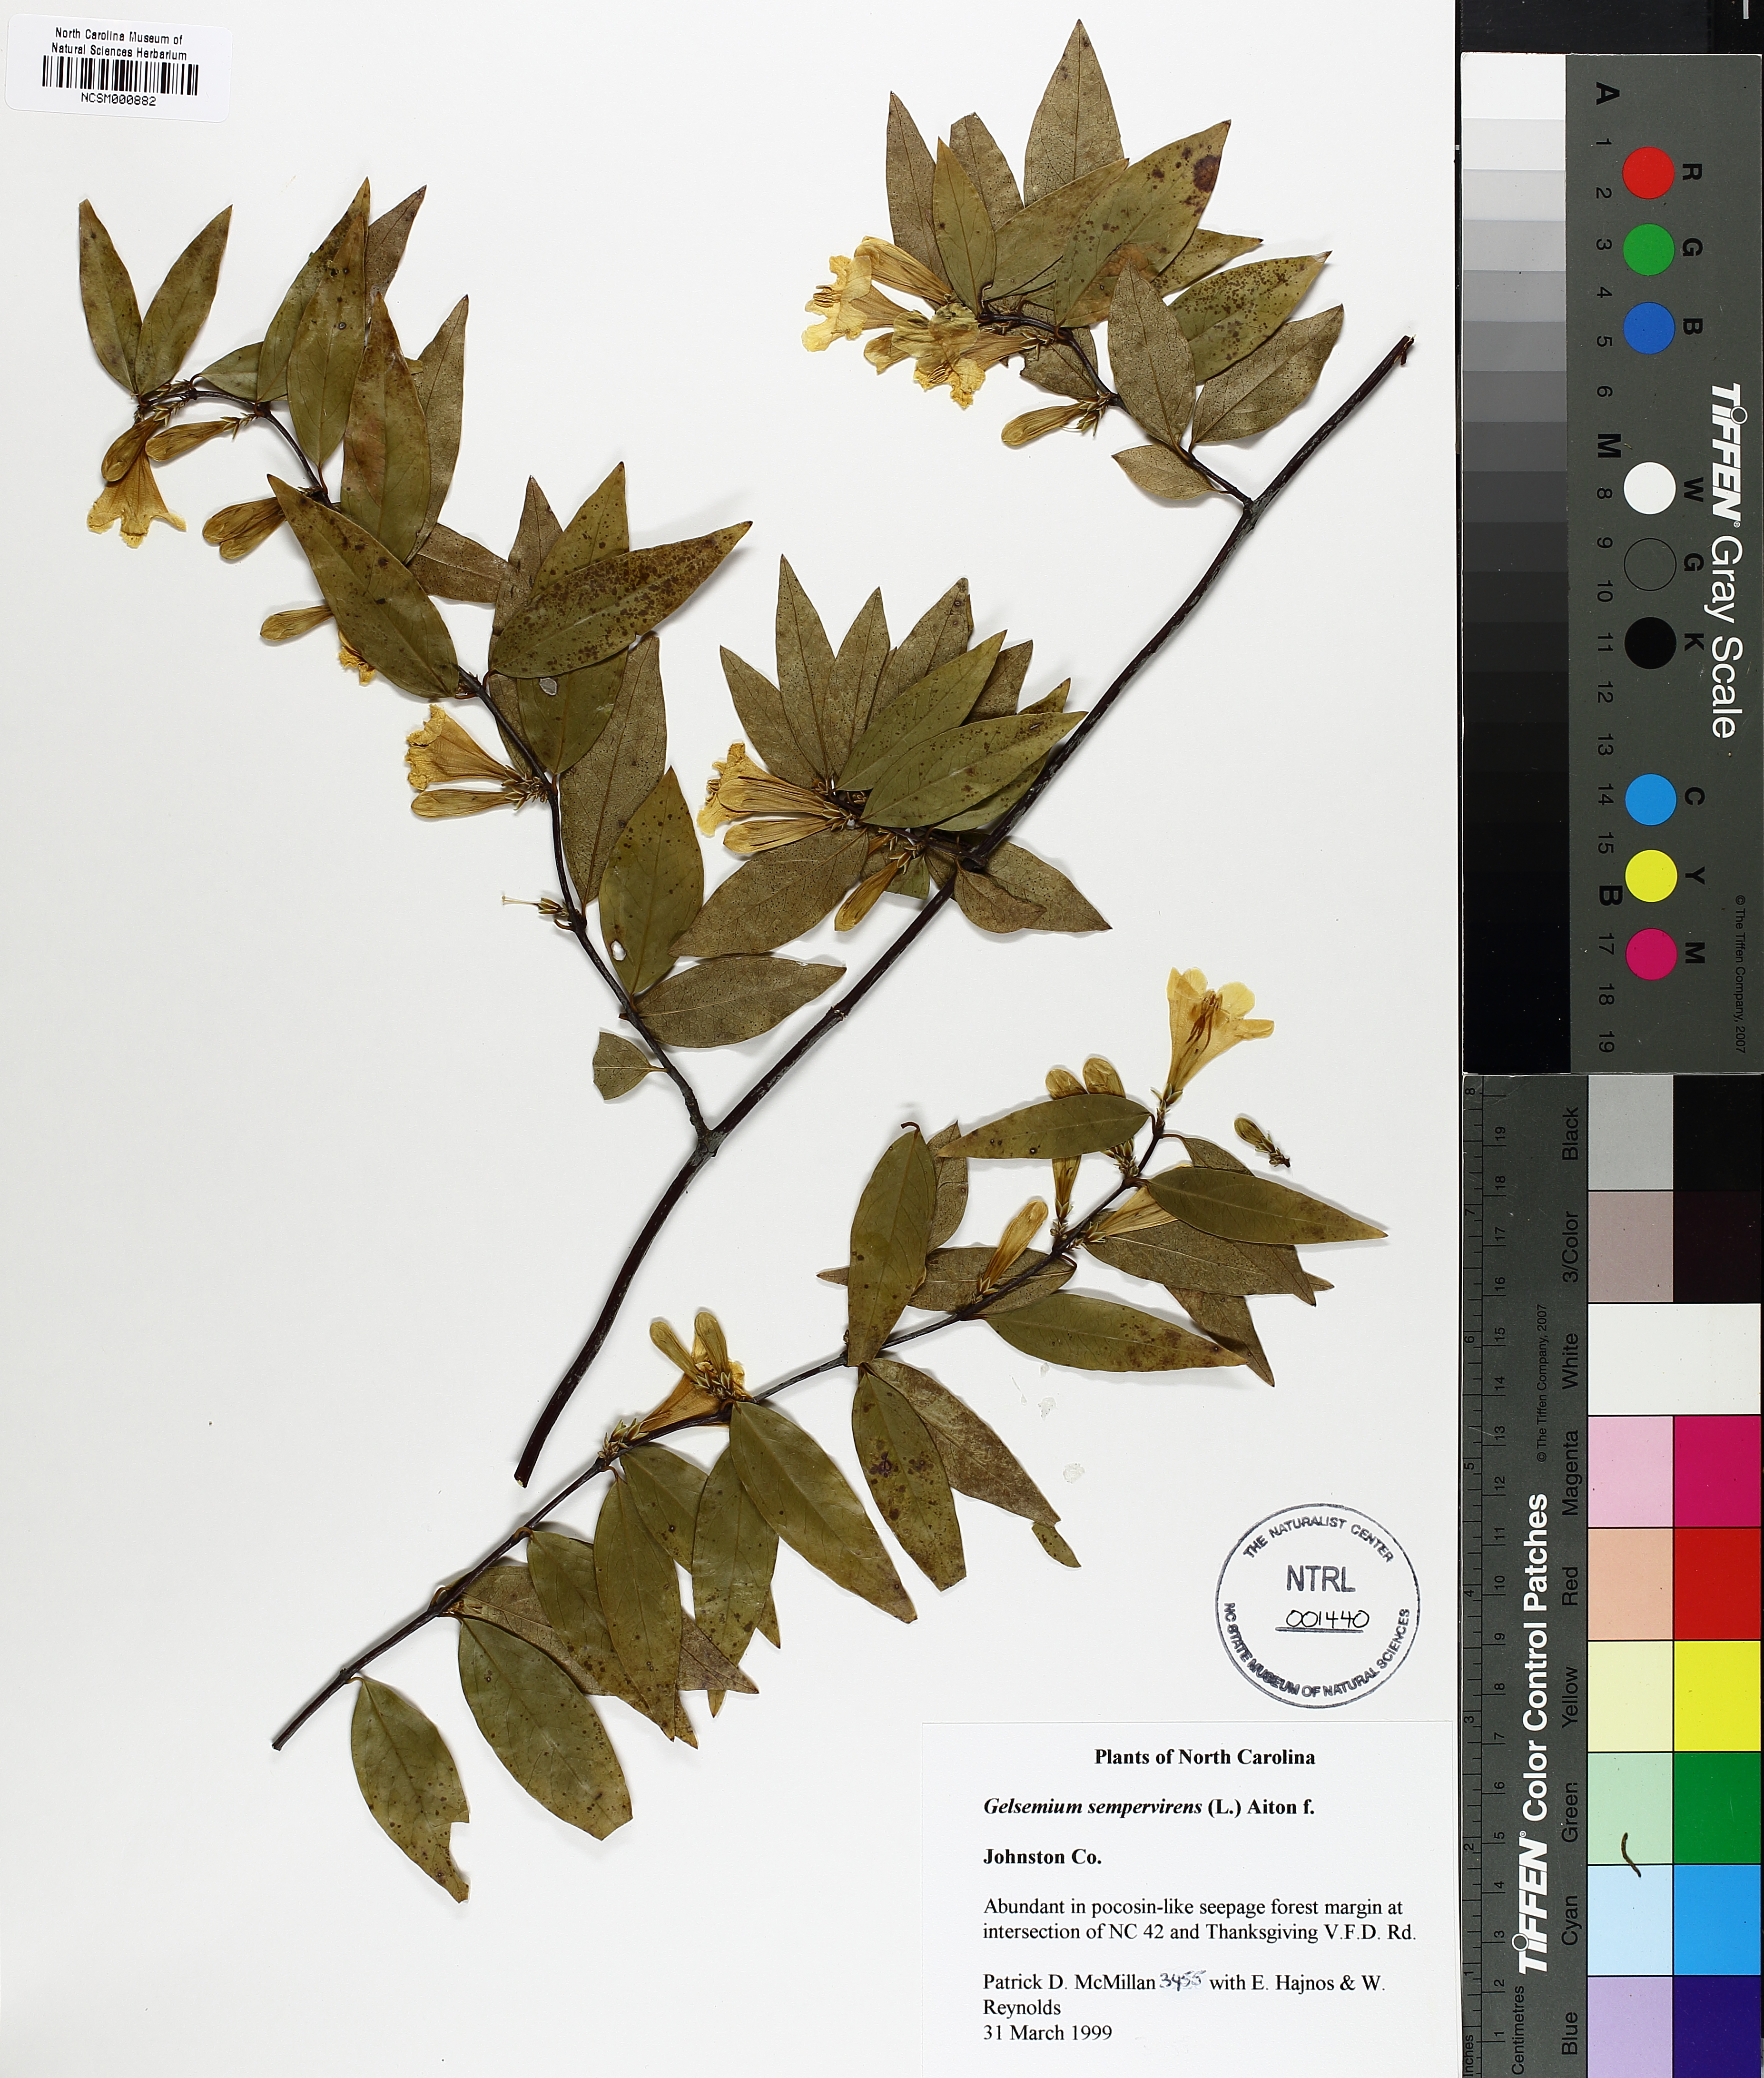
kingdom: Plantae
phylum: Tracheophyta
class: Magnoliopsida
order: Gentianales
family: Gelsemiaceae
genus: Gelsemium
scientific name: Gelsemium sempervirens
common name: Carolina-jasmine
